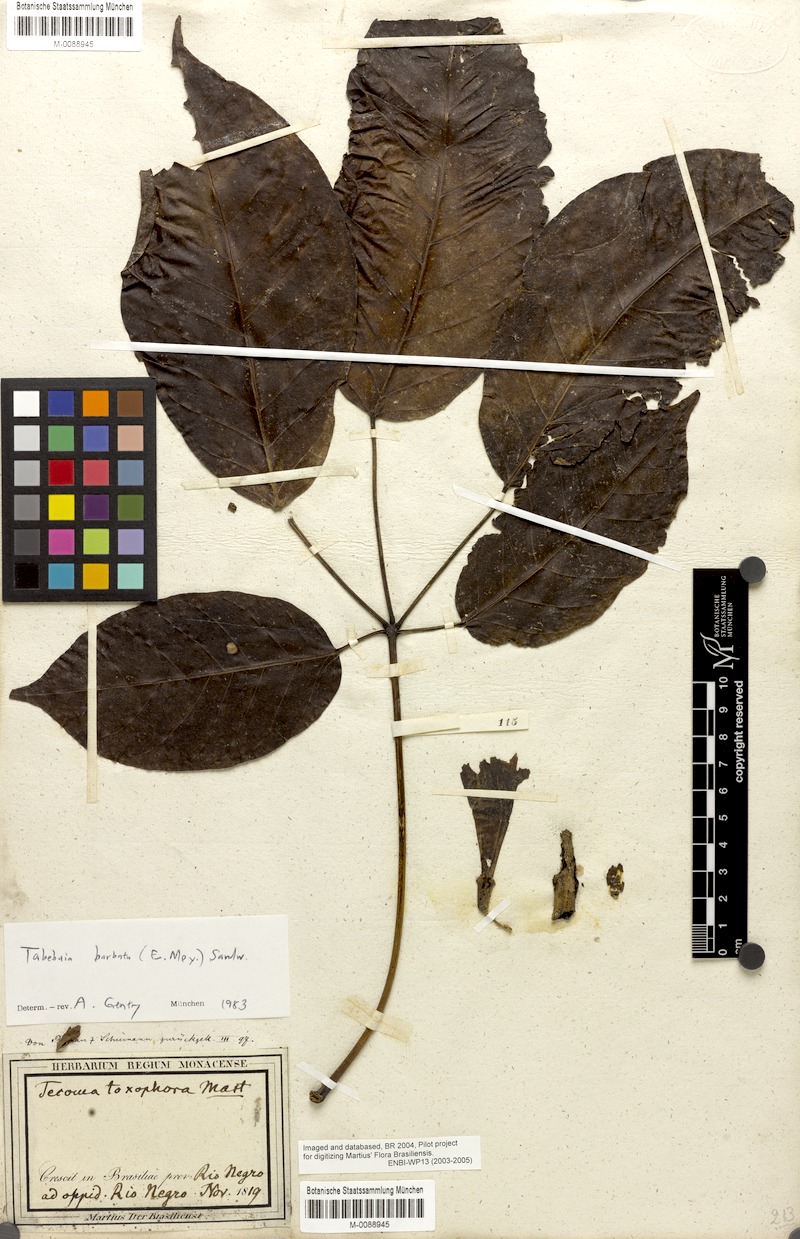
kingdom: Plantae
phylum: Tracheophyta
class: Magnoliopsida
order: Lamiales
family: Bignoniaceae
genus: Handroanthus
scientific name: Handroanthus barbatus
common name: Trumpet trees
